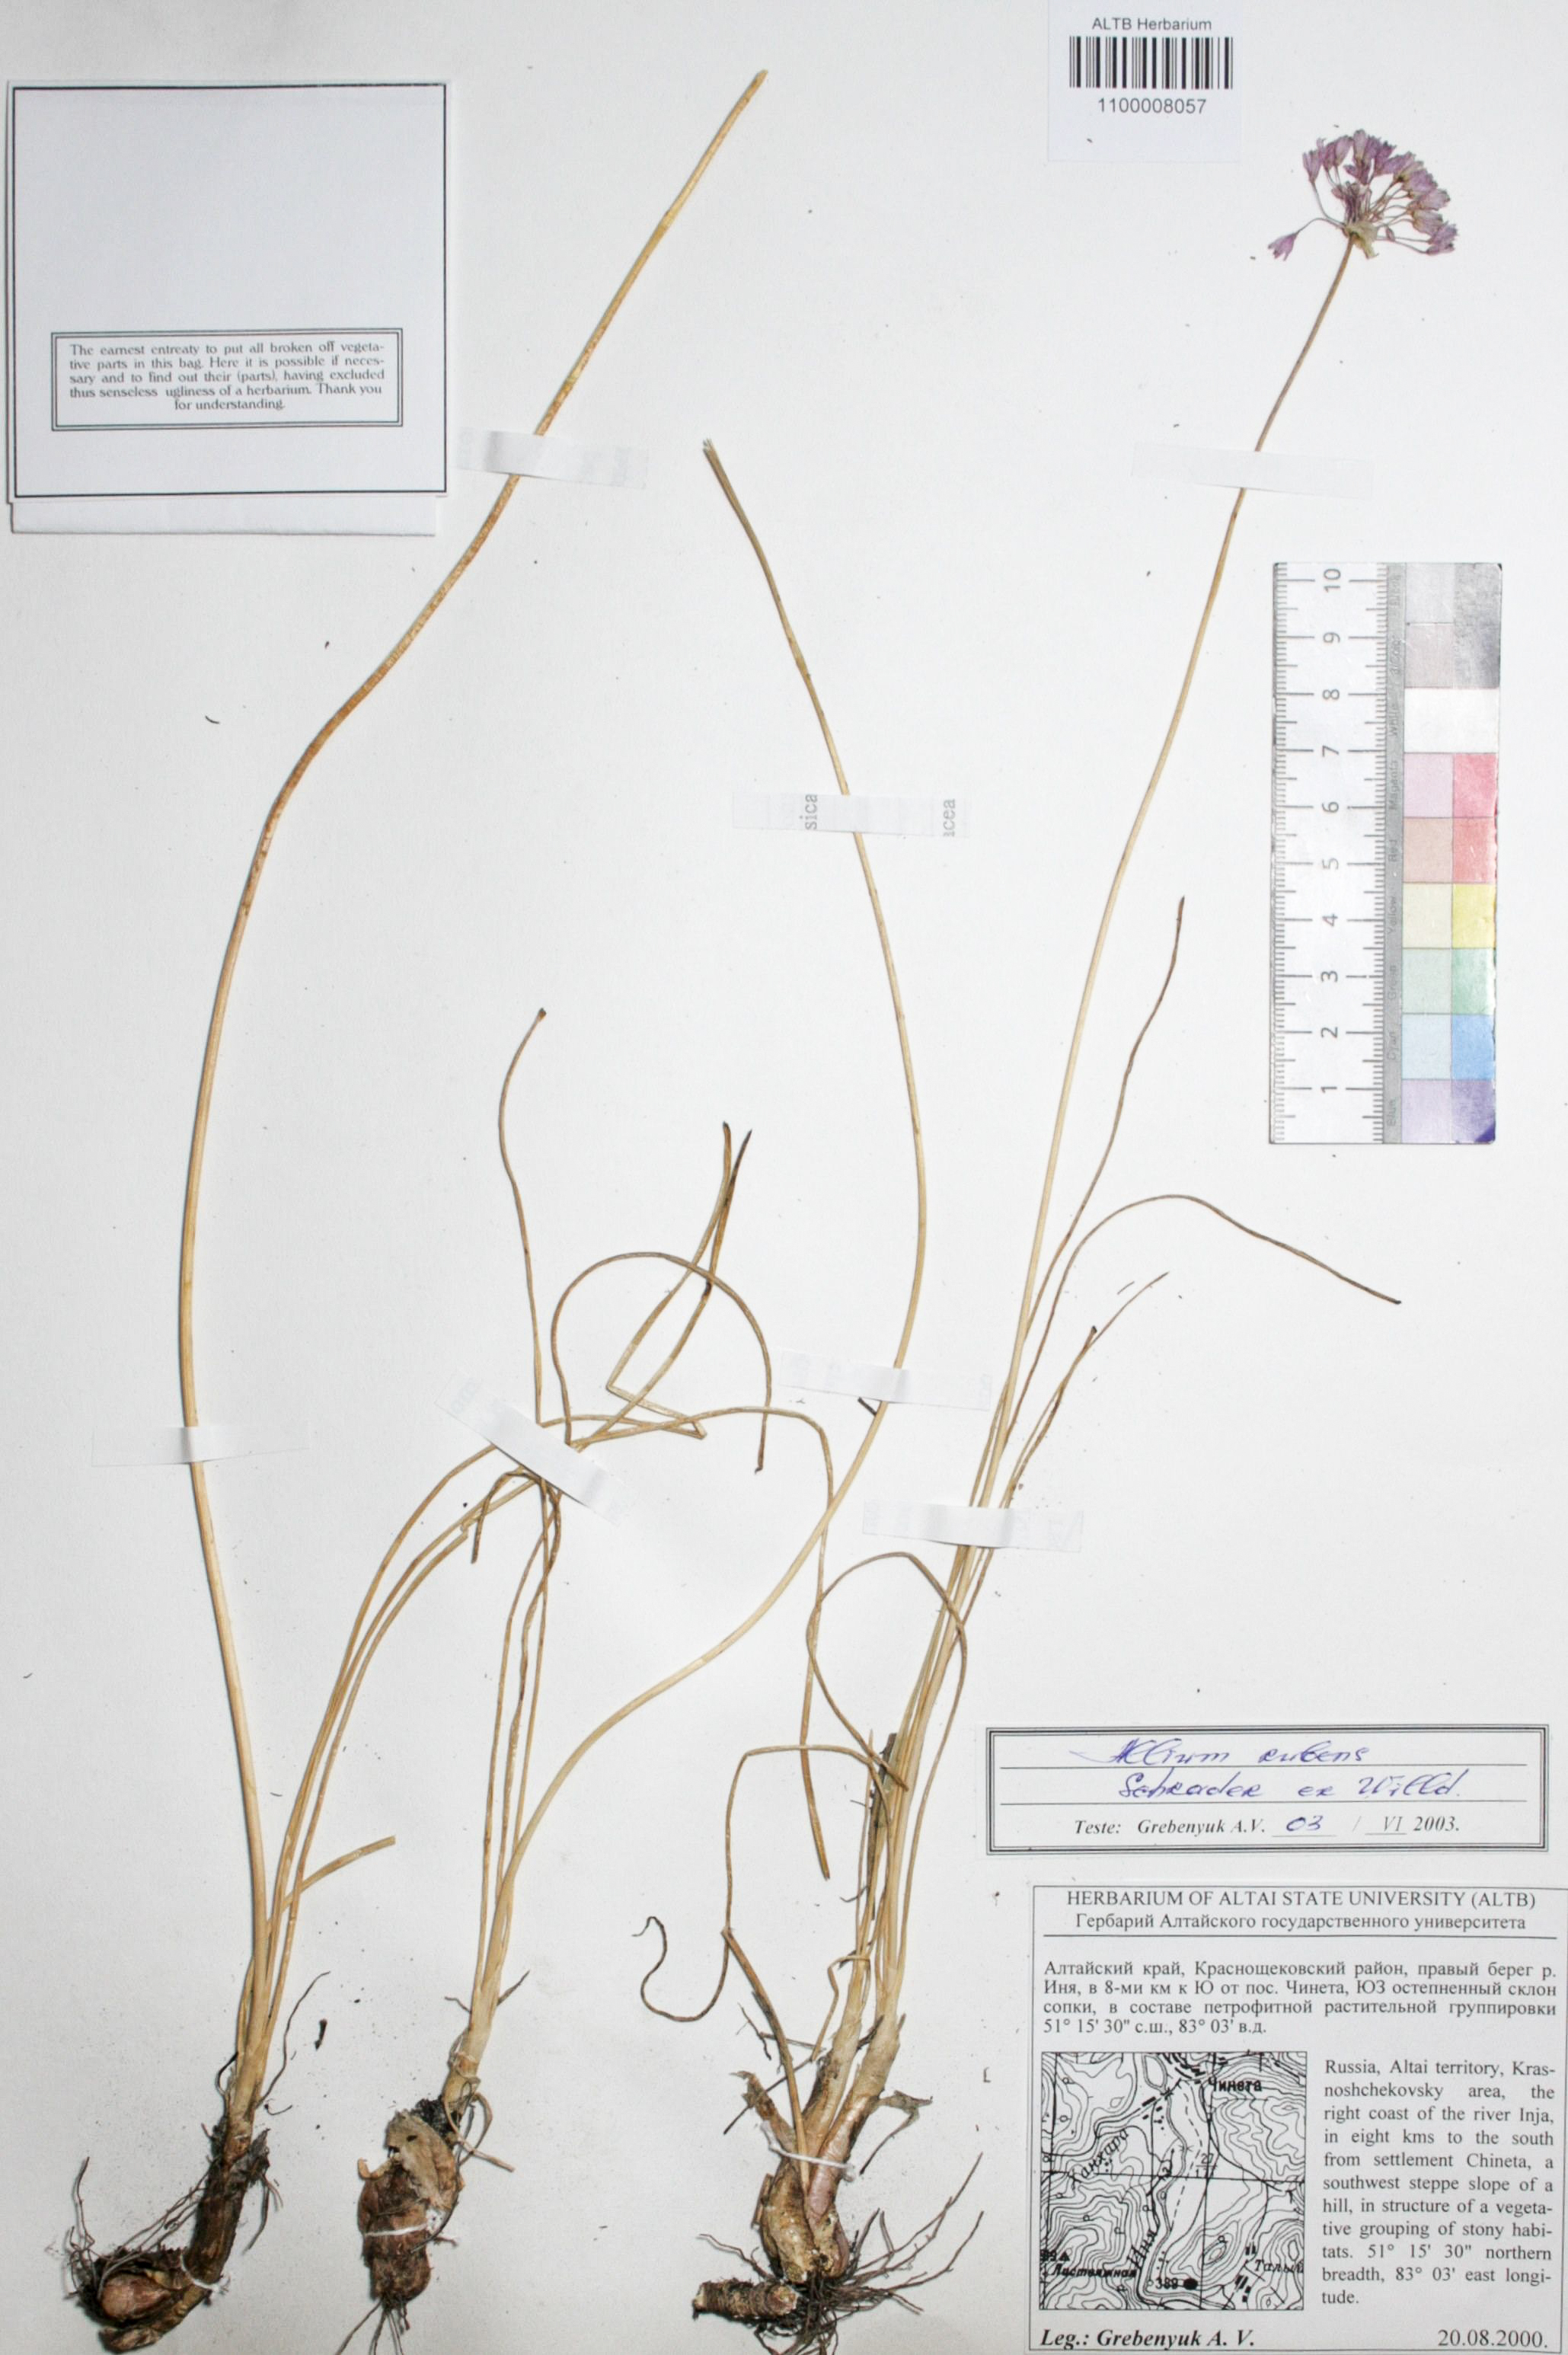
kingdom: Plantae
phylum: Tracheophyta
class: Liliopsida
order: Asparagales
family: Amaryllidaceae
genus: Allium
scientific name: Allium rubens
